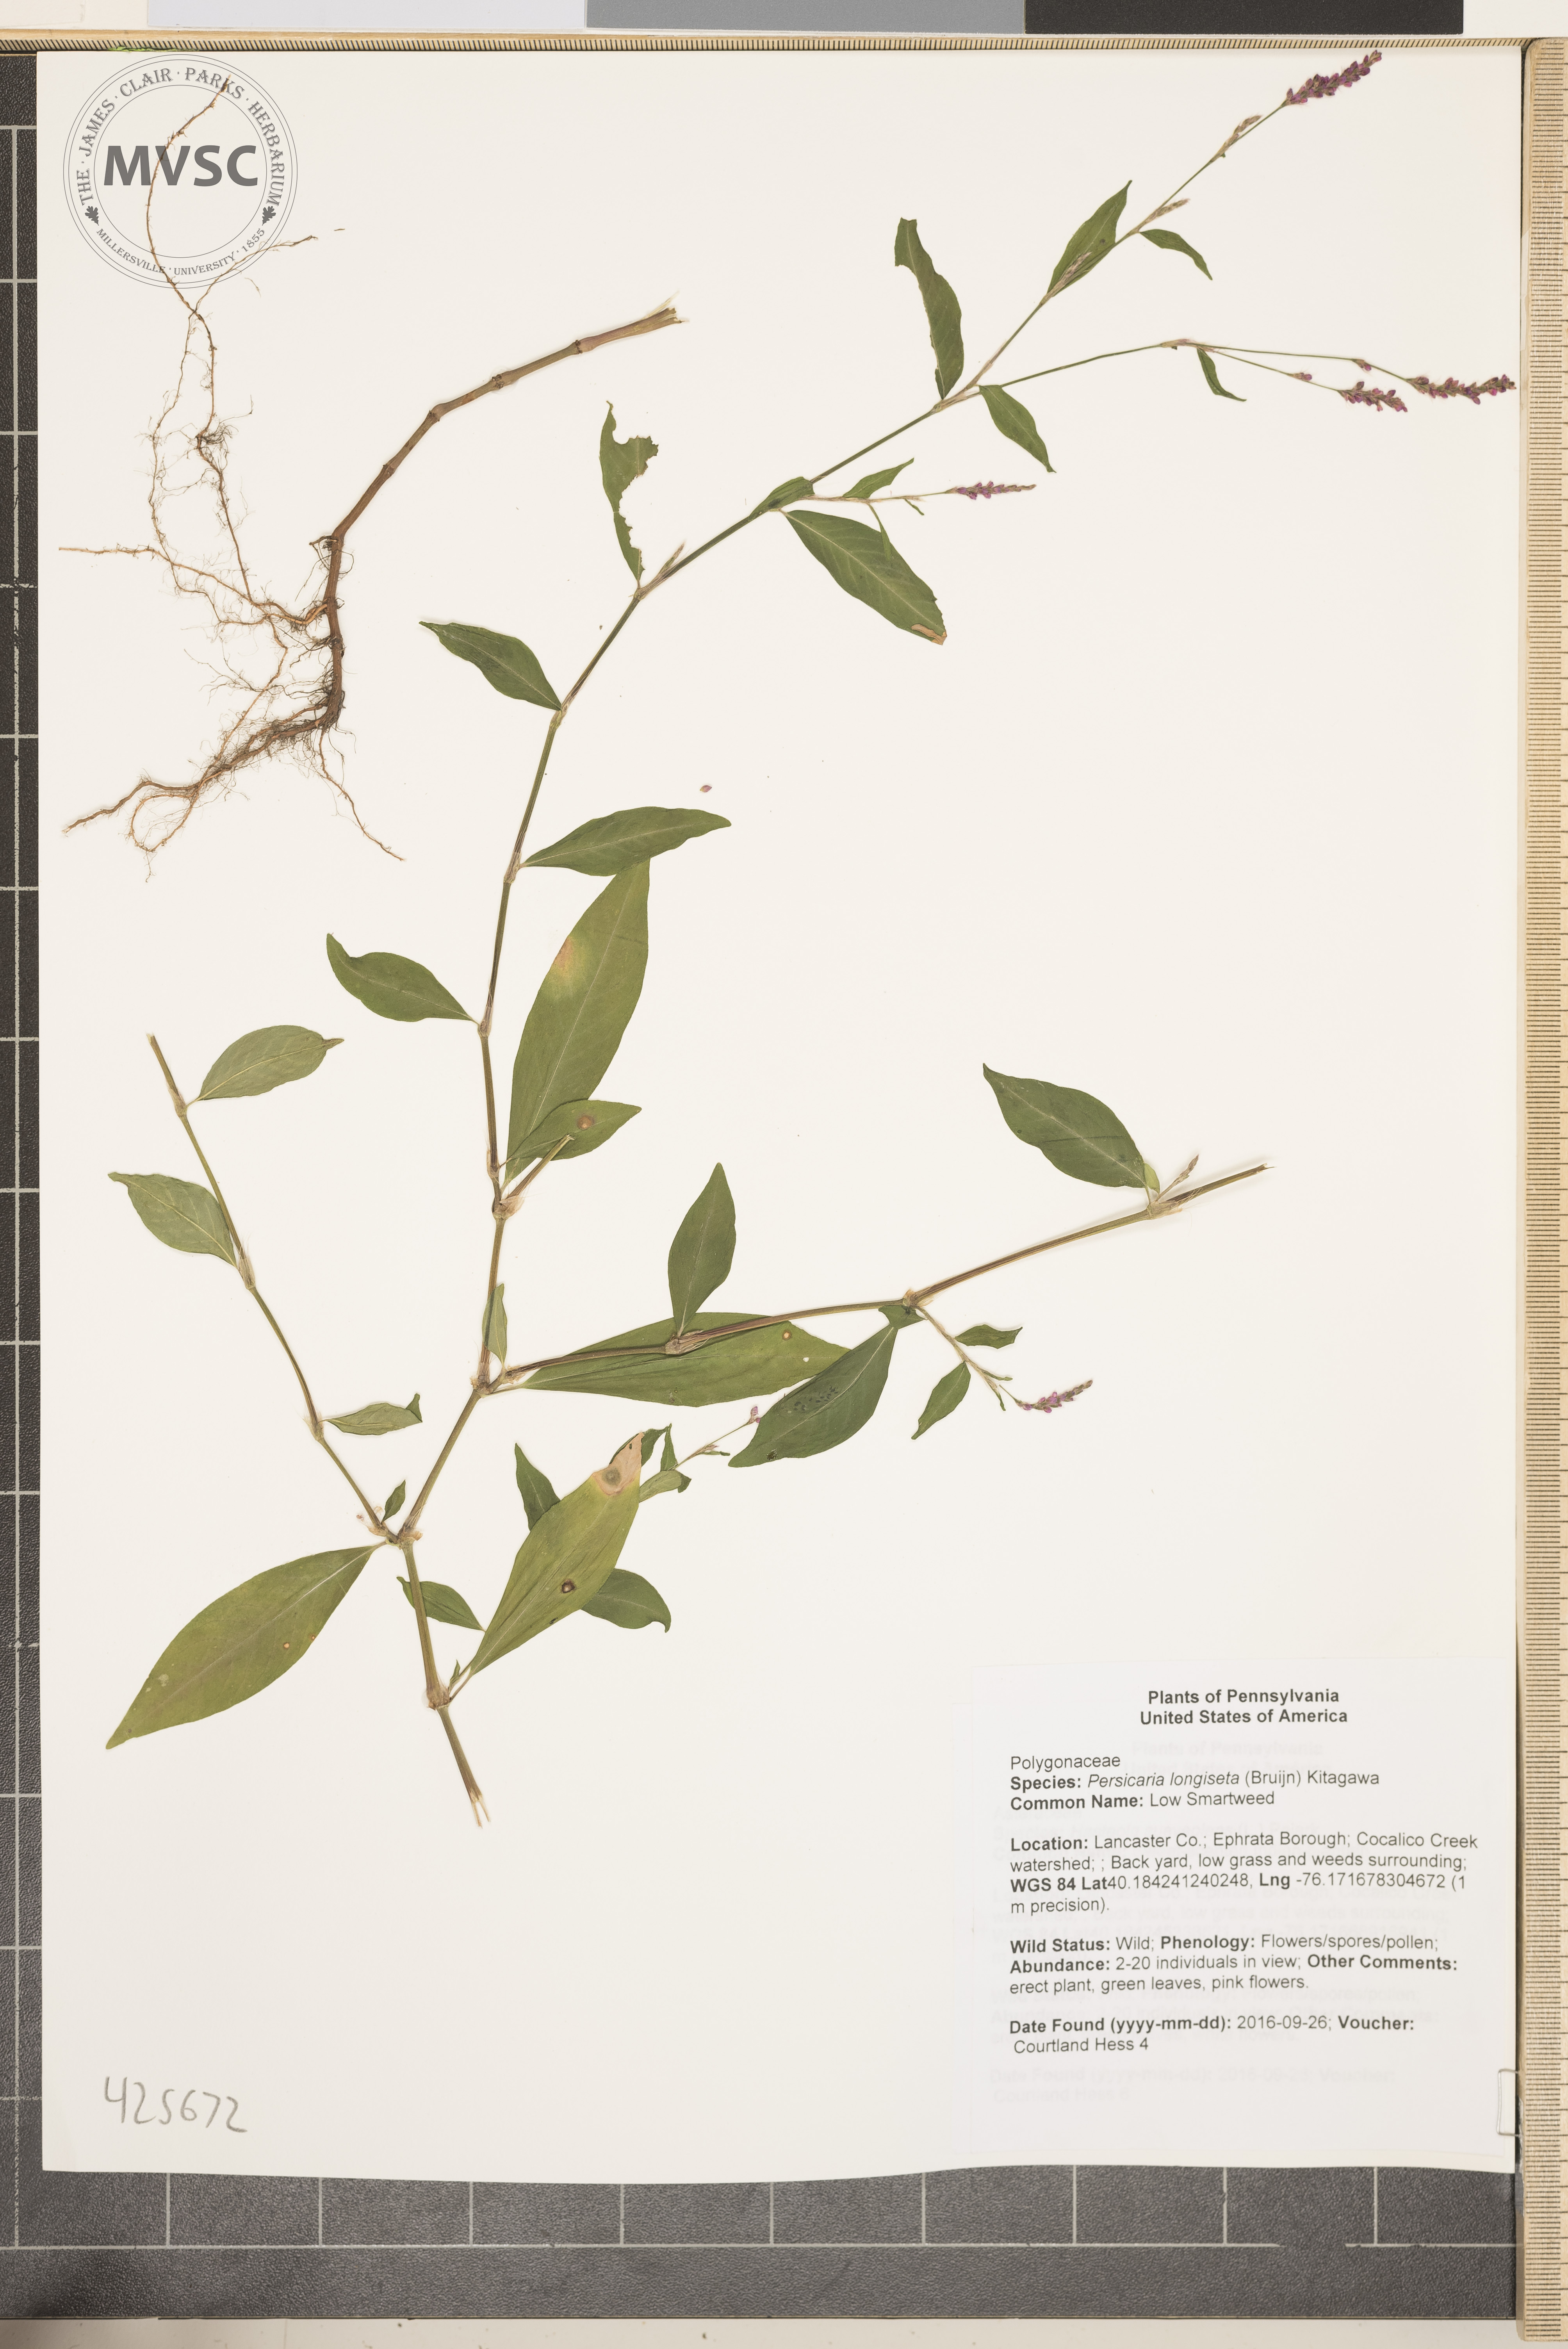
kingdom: Plantae
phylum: Tracheophyta
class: Magnoliopsida
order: Caryophyllales
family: Polygonaceae
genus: Persicaria
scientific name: Persicaria longiseta
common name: Low Smartweed
